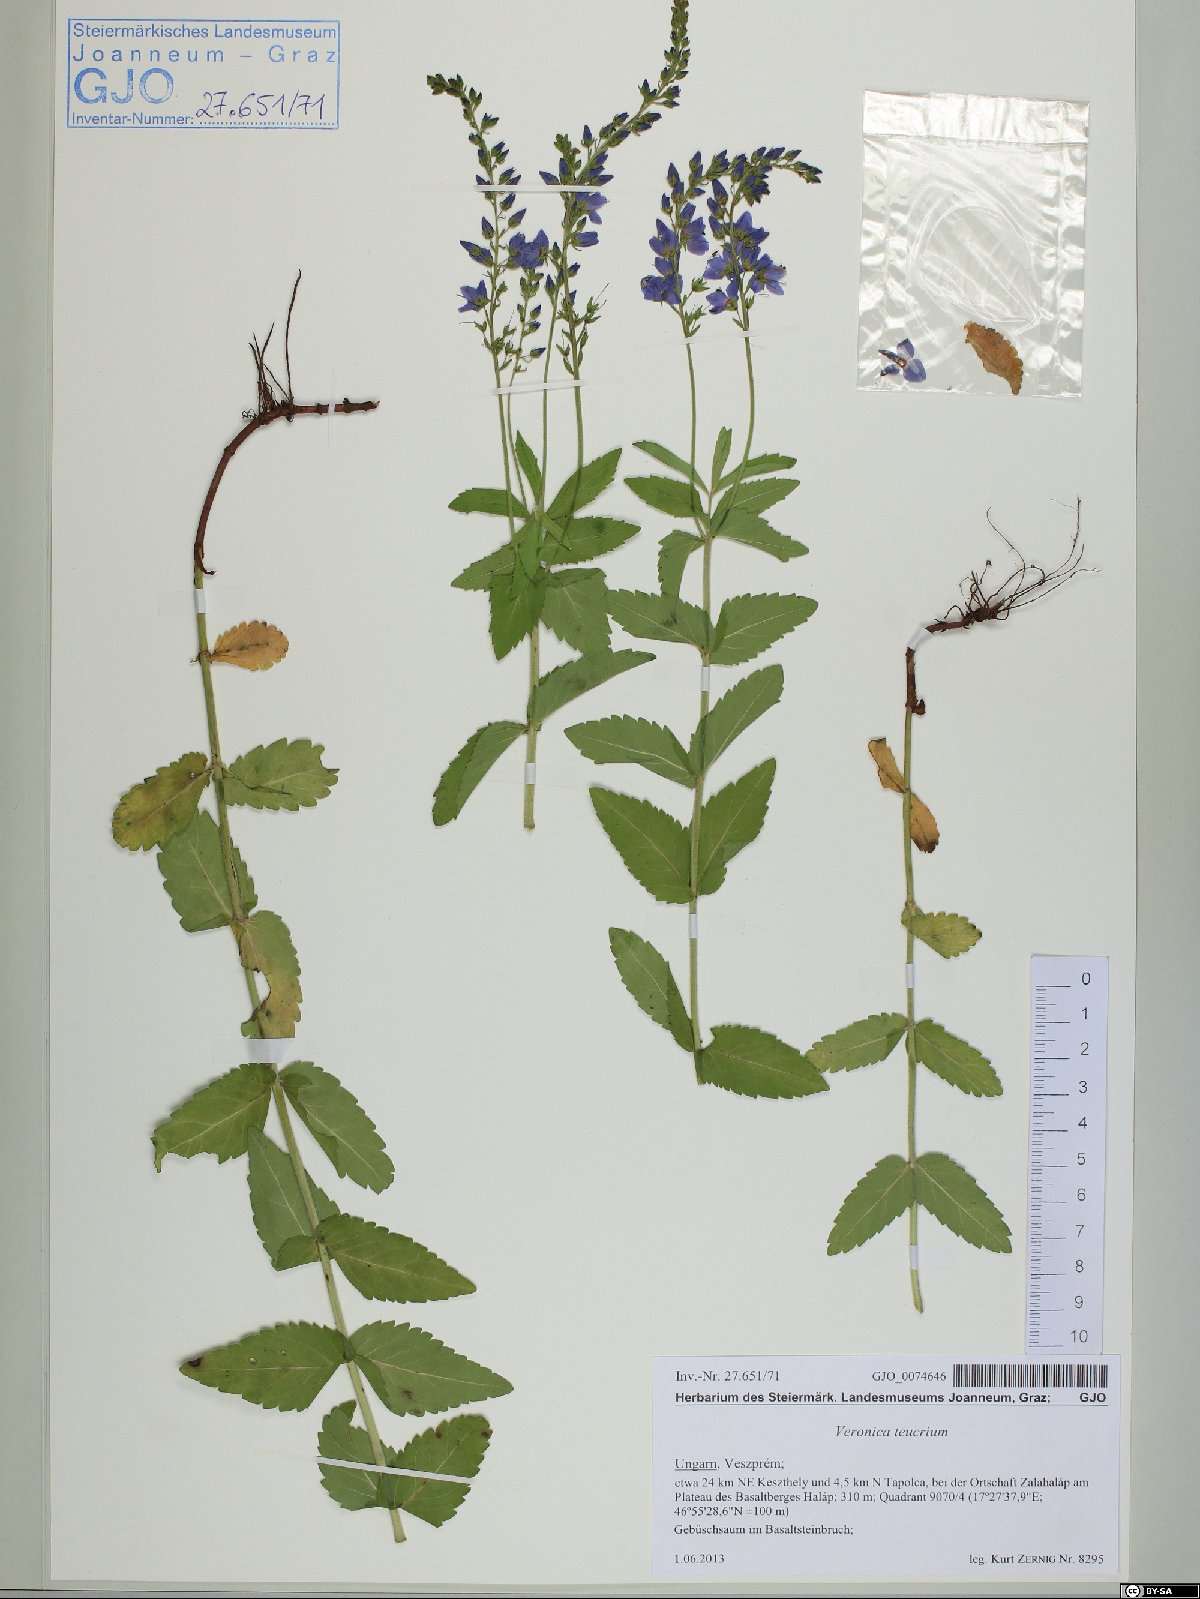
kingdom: Plantae
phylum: Tracheophyta
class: Magnoliopsida
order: Lamiales
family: Plantaginaceae
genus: Veronica
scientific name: Veronica teucrium
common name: Large speedwell
